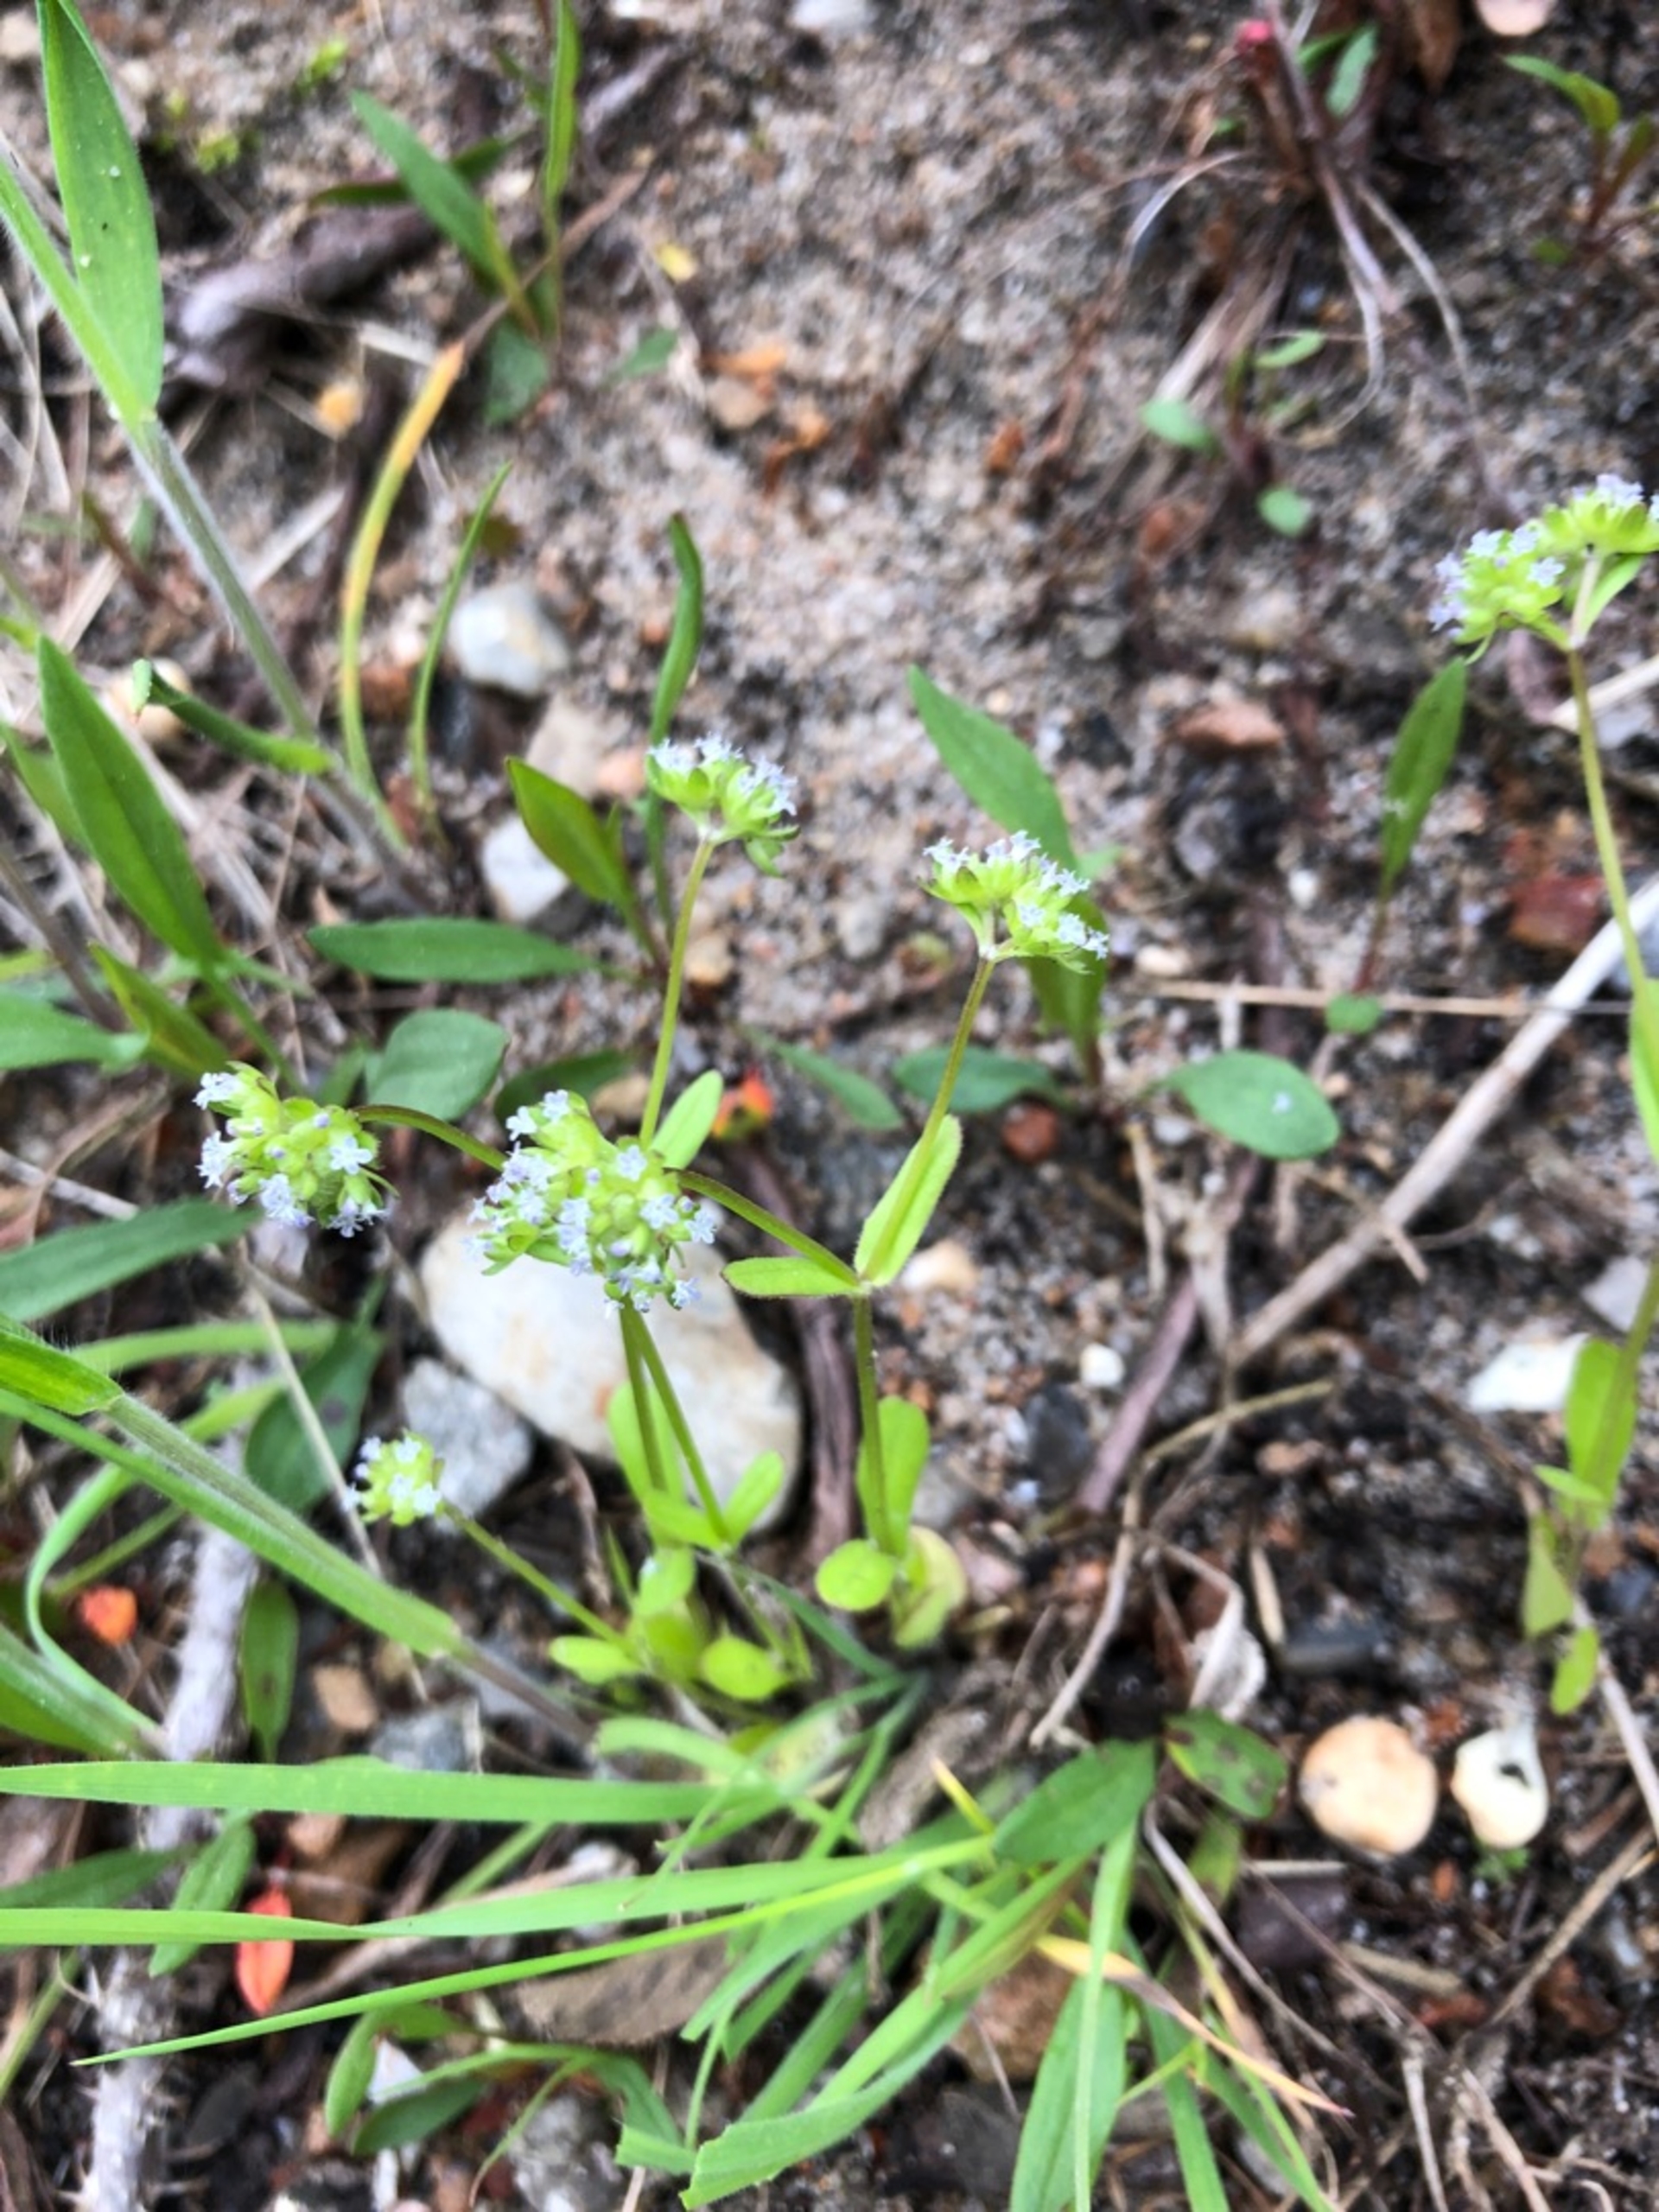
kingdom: Plantae
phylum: Tracheophyta
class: Magnoliopsida
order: Dipsacales
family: Caprifoliaceae
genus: Valerianella
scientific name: Valerianella locusta
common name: Tandfri vårsalat
